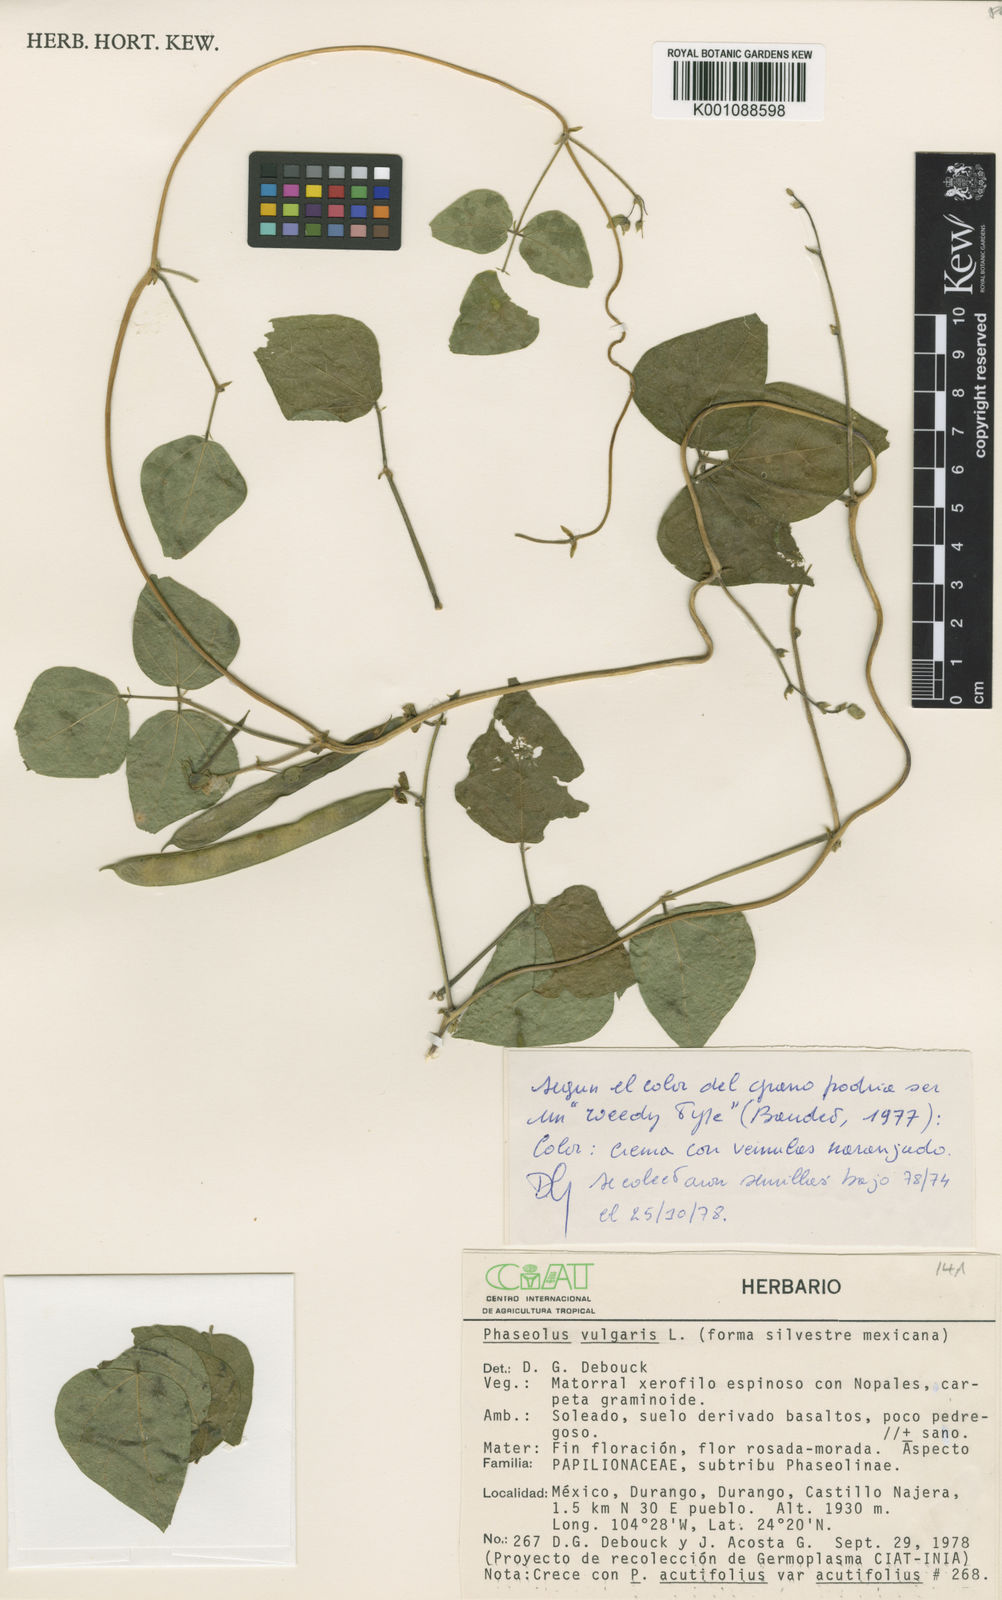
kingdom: Plantae
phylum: Tracheophyta
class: Magnoliopsida
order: Fabales
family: Fabaceae
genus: Phaseolus
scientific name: Phaseolus vulgaris
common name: Bean
